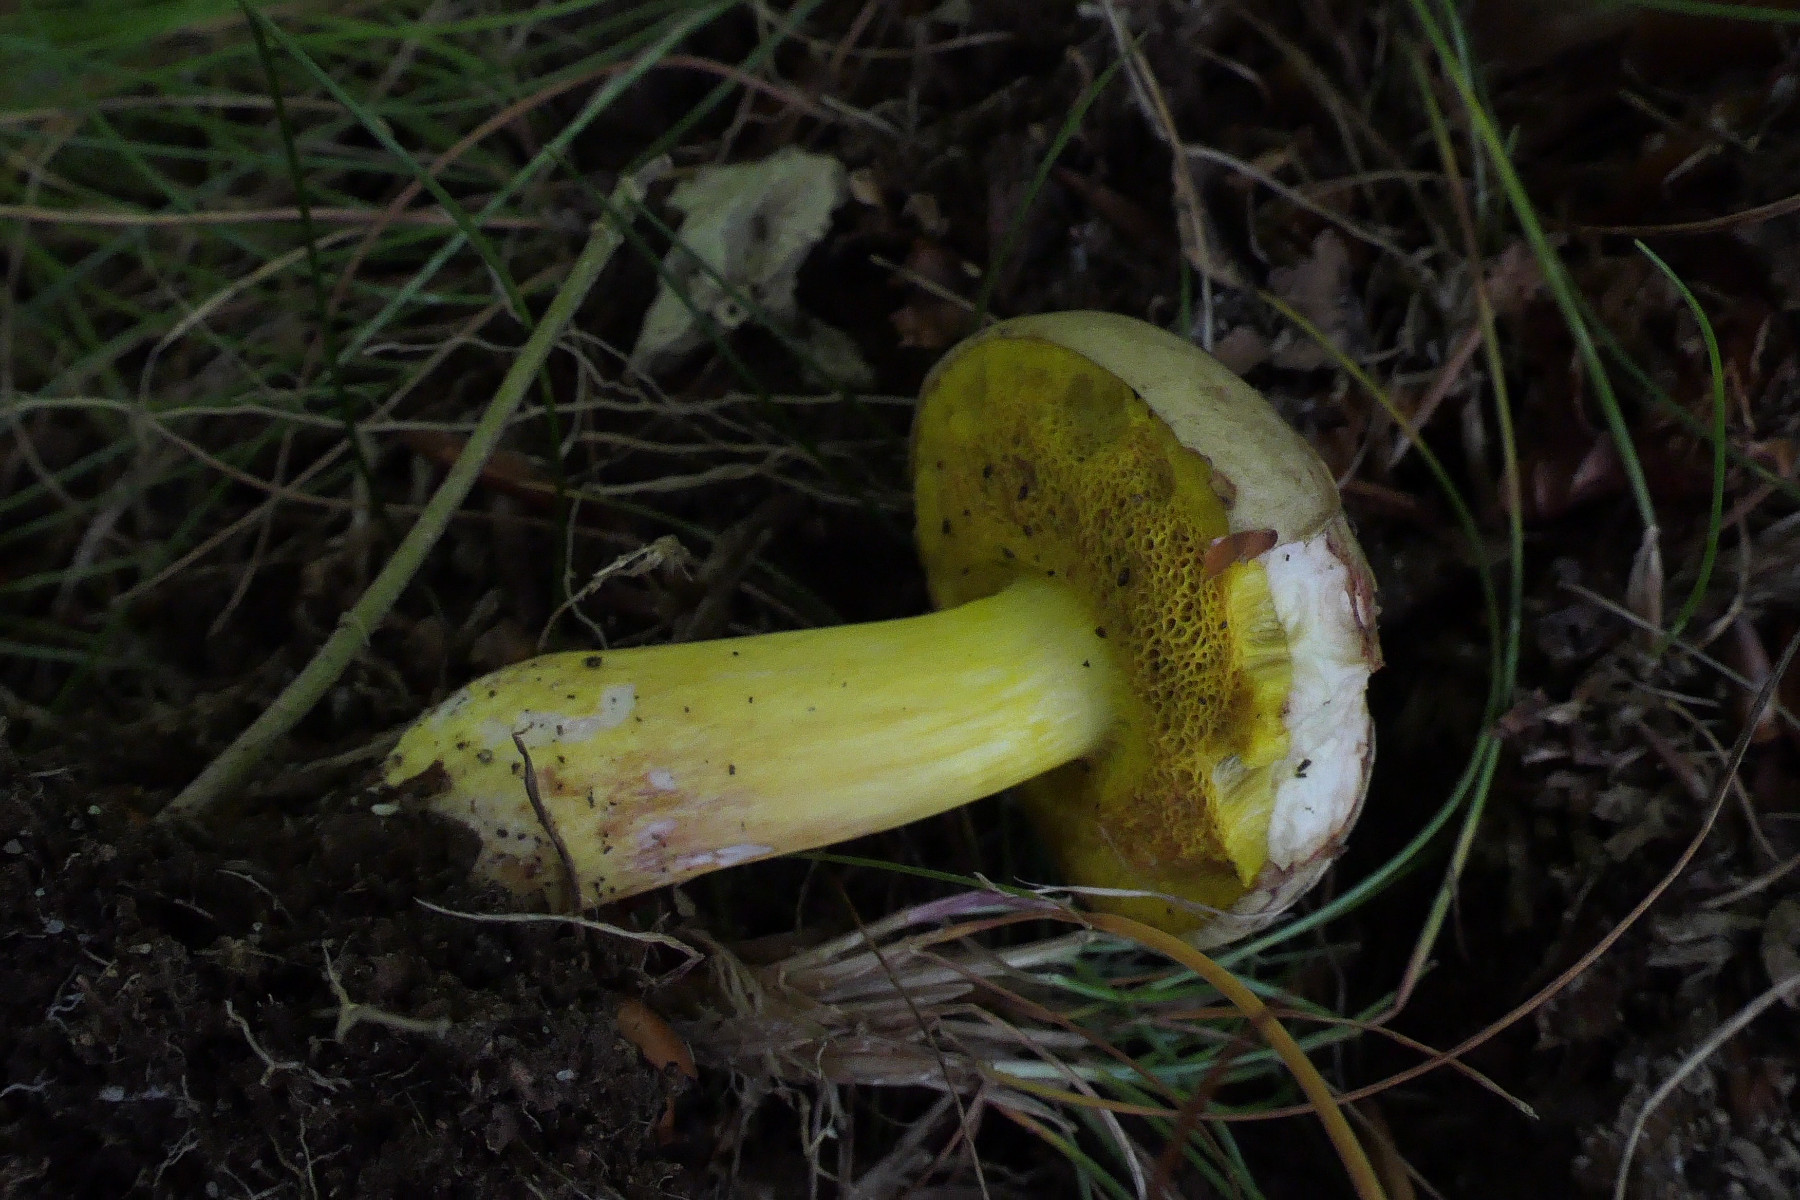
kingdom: Fungi
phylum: Basidiomycota
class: Agaricomycetes
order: Boletales
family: Boletaceae
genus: Aureoboletus
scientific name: Aureoboletus gentilis
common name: guldrørhat
